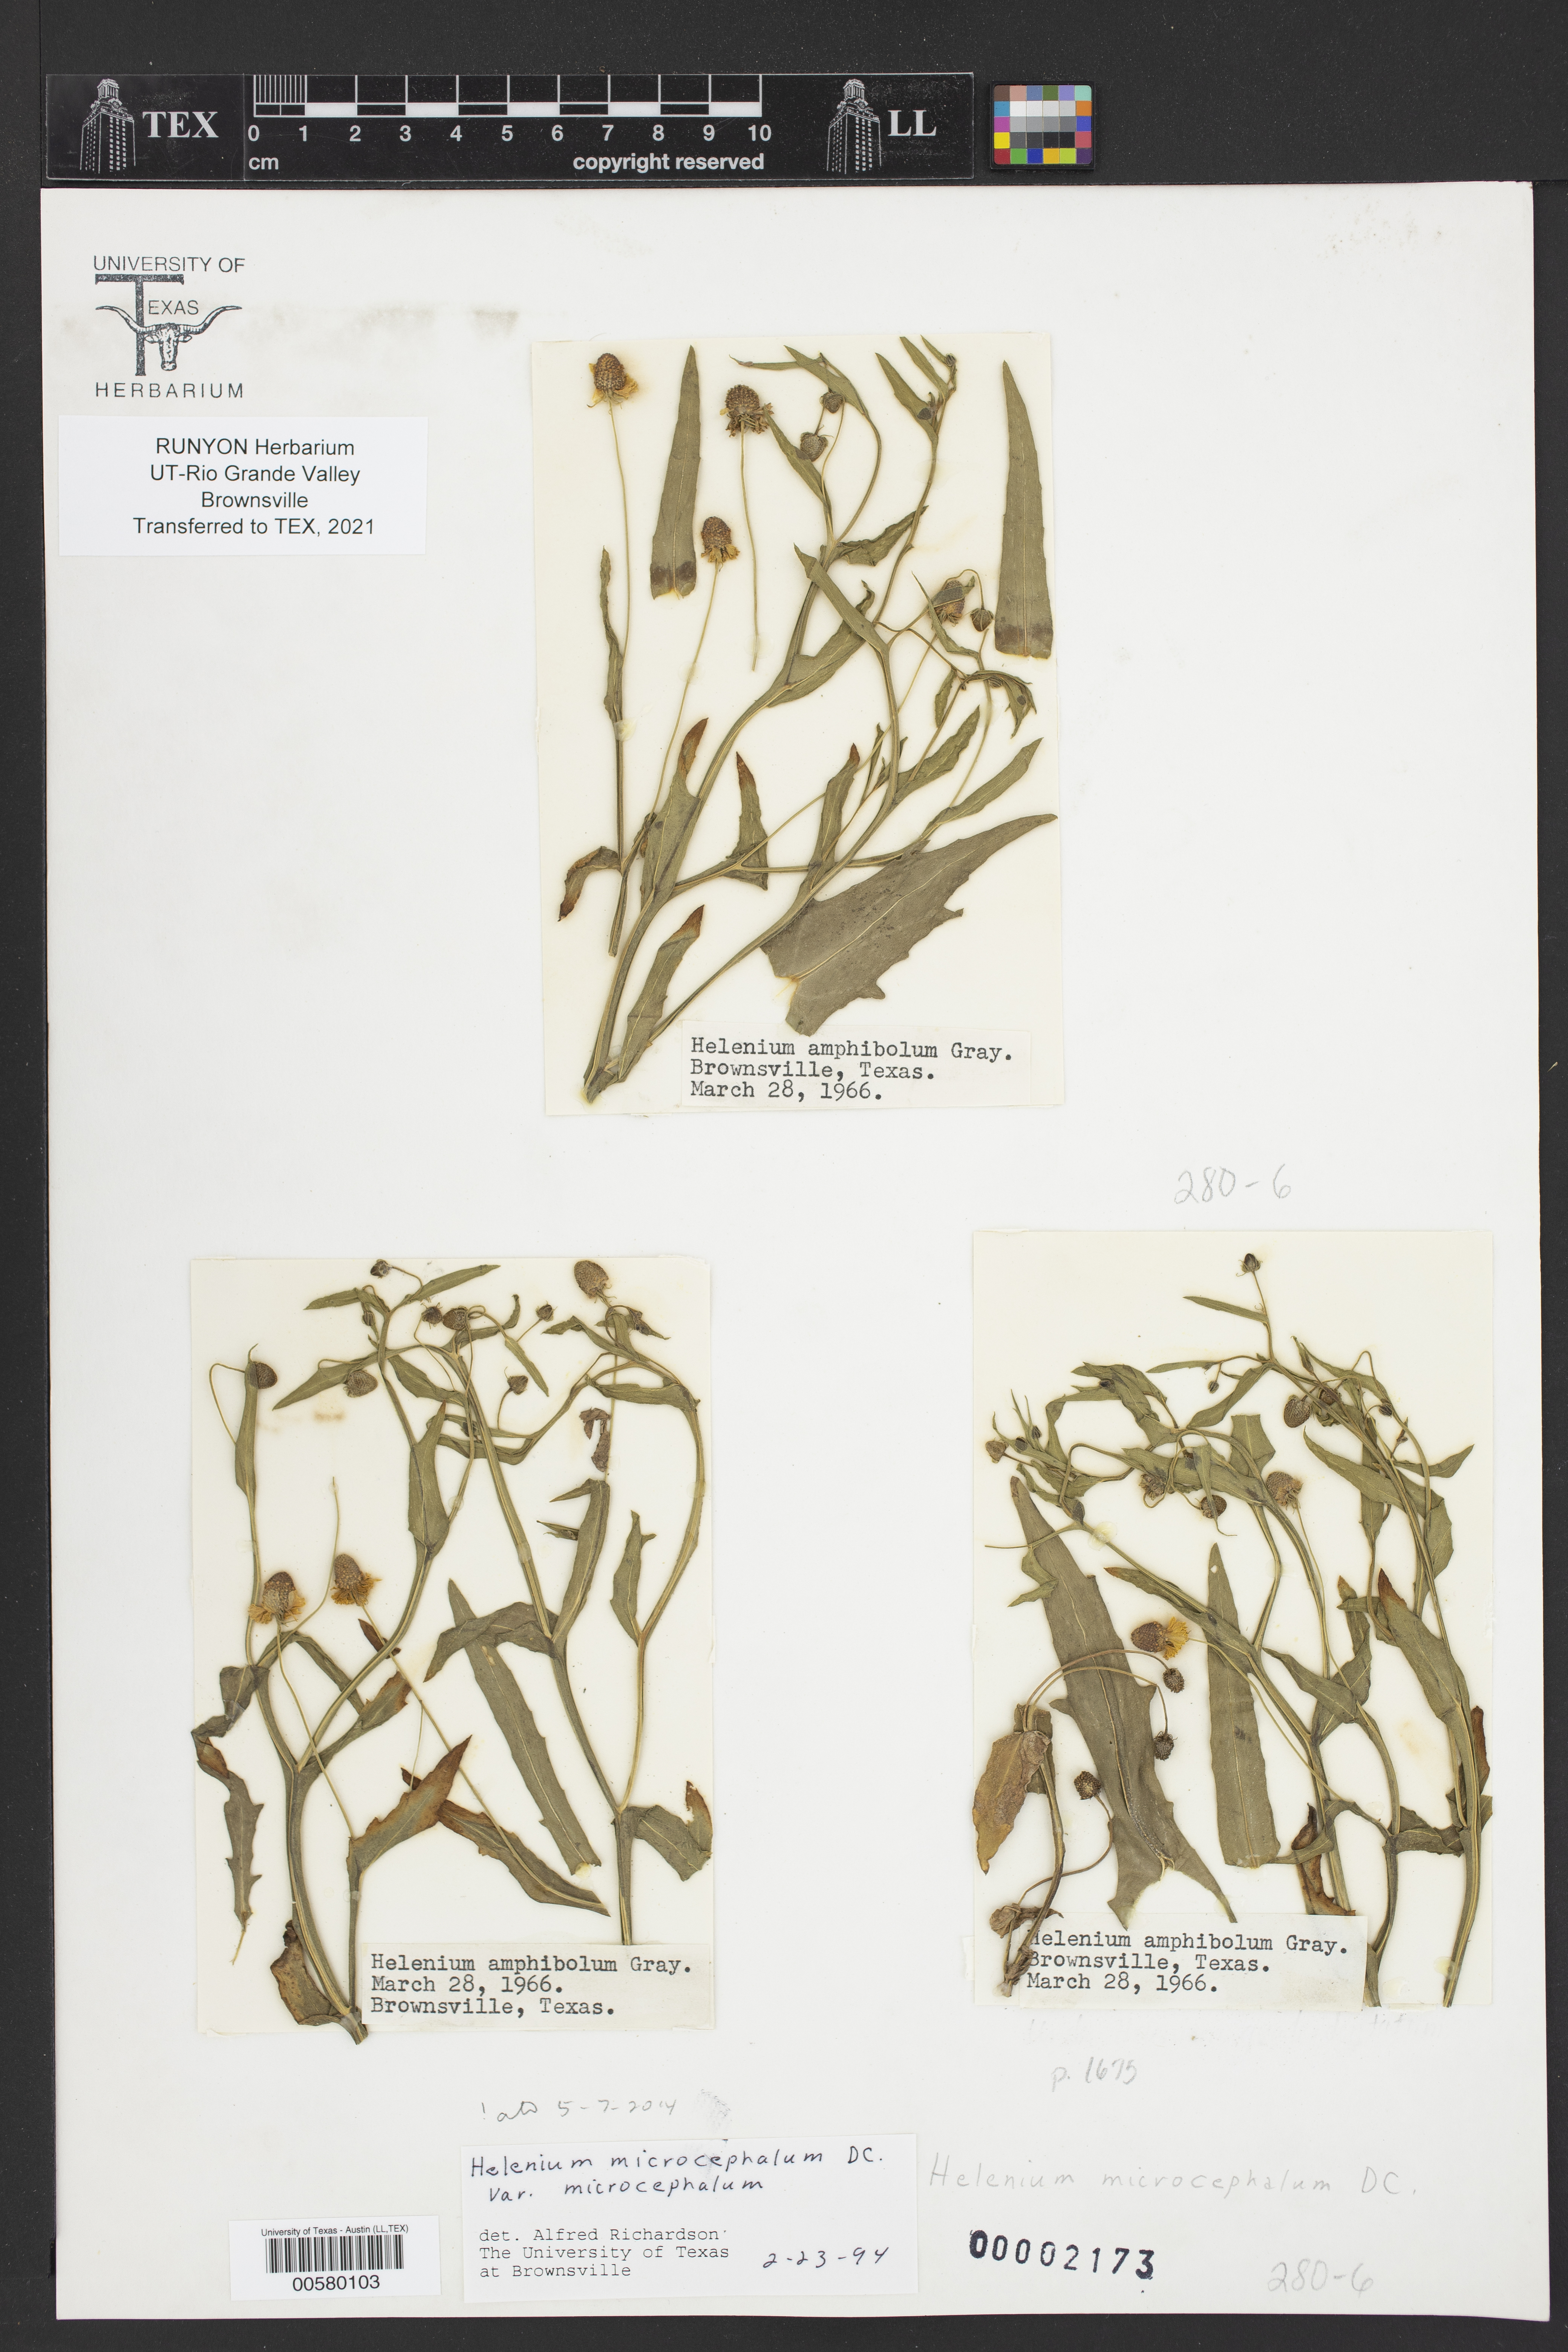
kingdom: Plantae
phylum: Tracheophyta
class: Magnoliopsida
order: Asterales
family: Asteraceae
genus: Helenium
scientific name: Helenium microcephalum
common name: Smallhead sneezeweed
